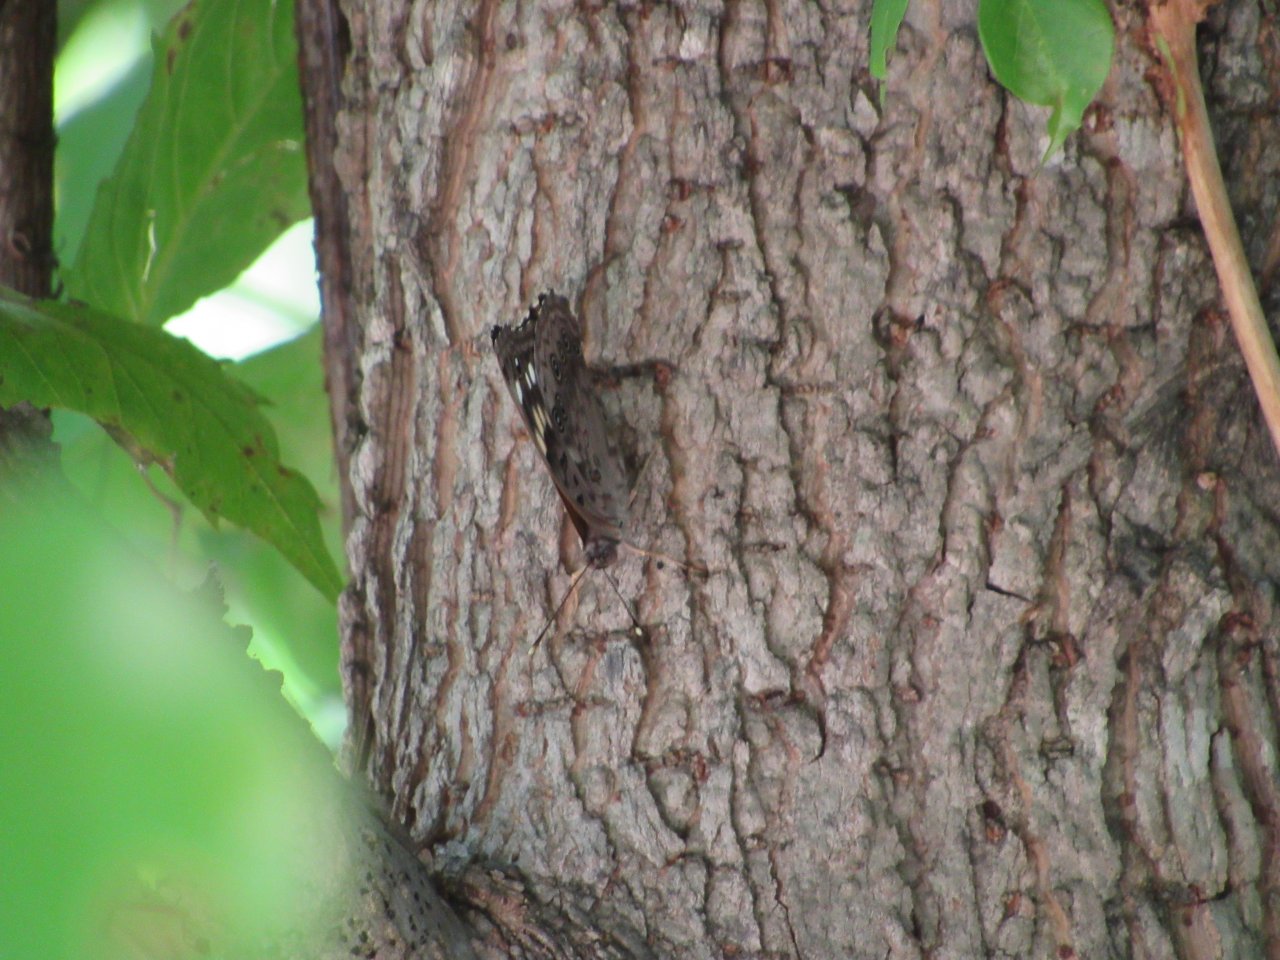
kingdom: Animalia
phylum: Arthropoda
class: Insecta
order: Lepidoptera
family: Nymphalidae
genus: Asterocampa
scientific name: Asterocampa celtis
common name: Hackberry Emperor
